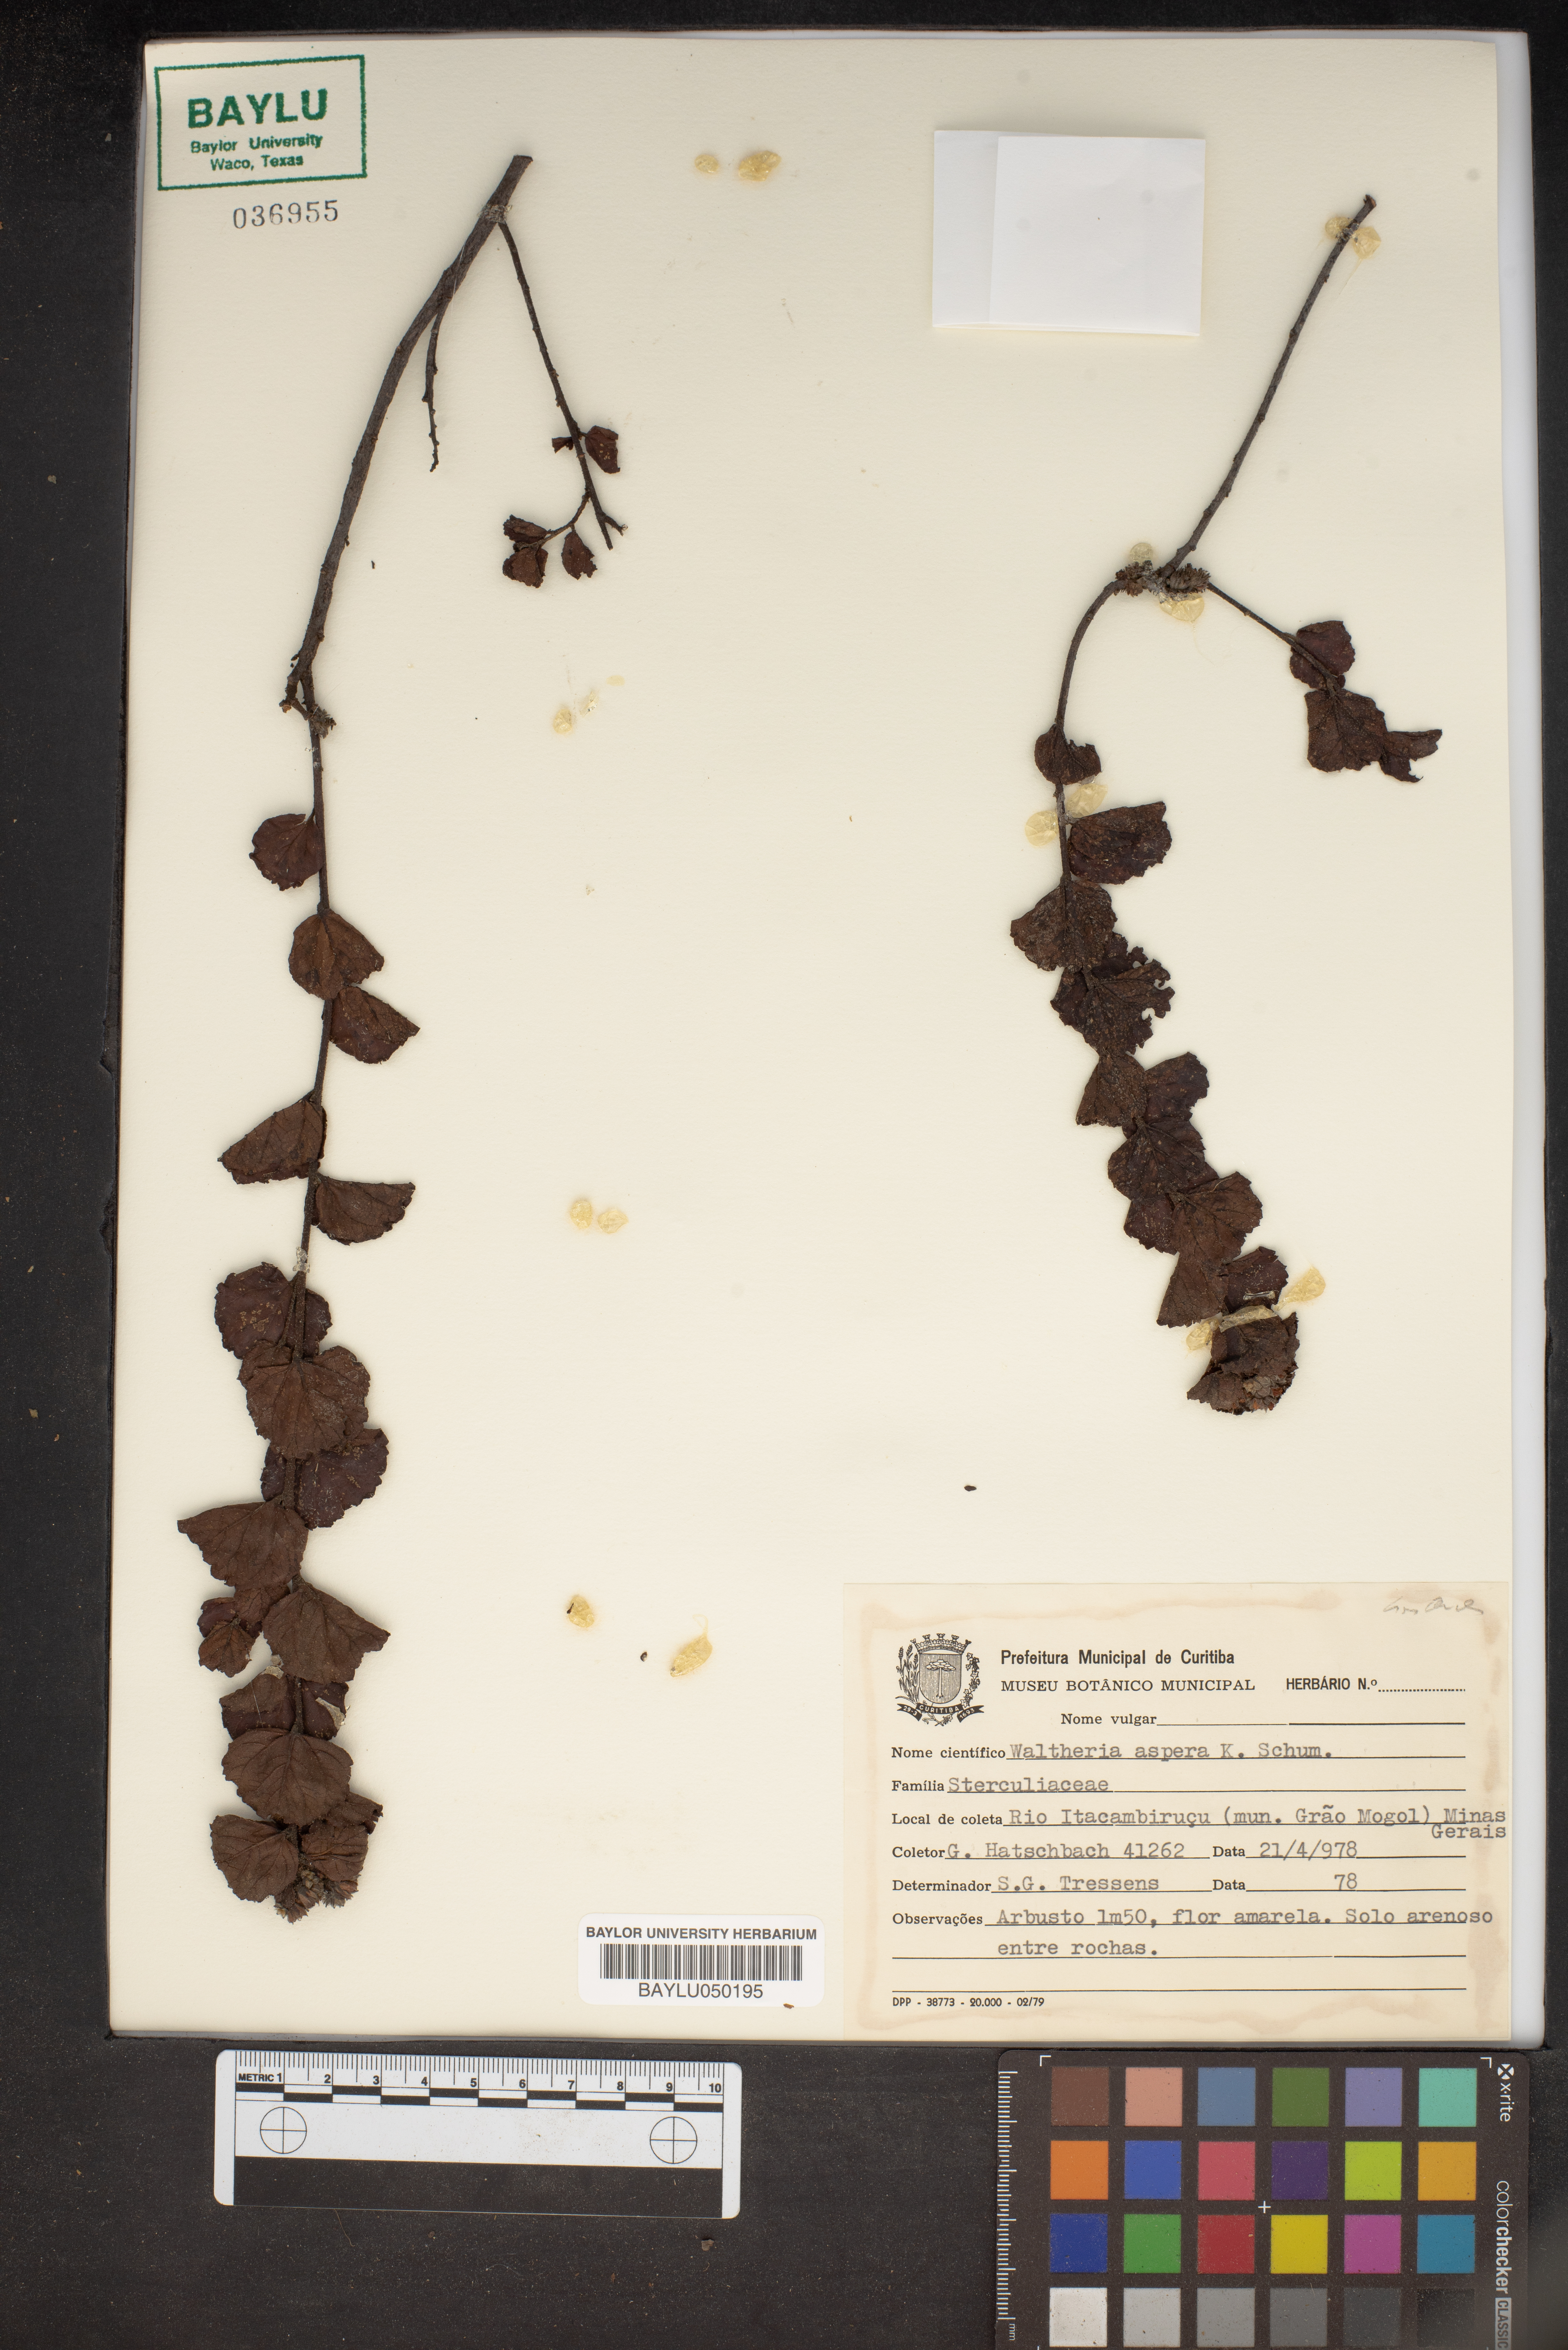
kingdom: Plantae
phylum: Tracheophyta
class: Magnoliopsida
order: Malvales
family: Malvaceae
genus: Waltheria
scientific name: Waltheria scabra
